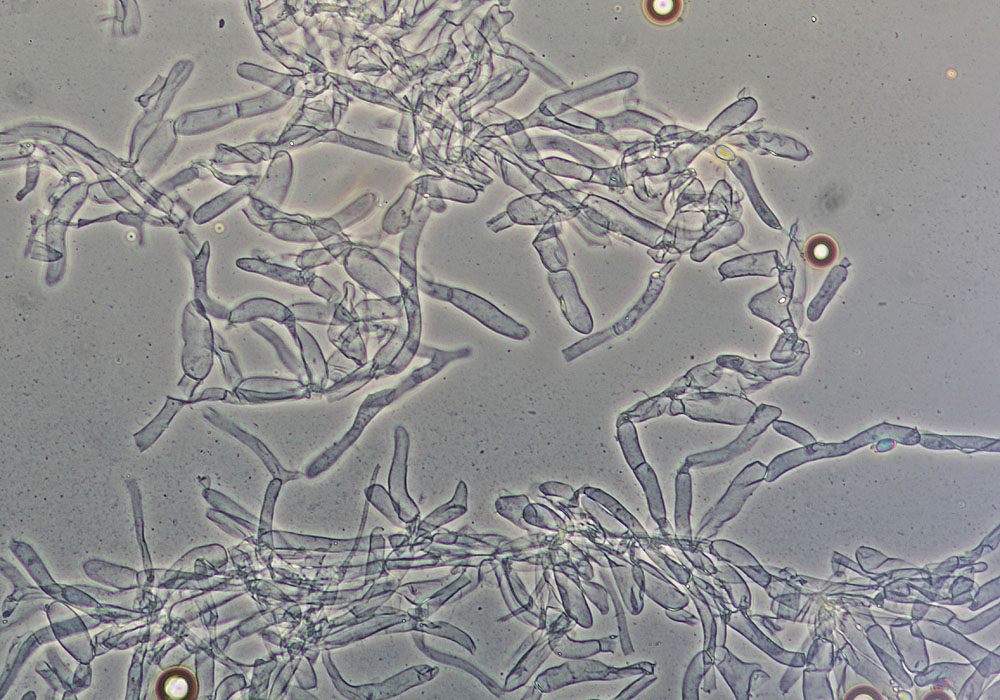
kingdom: Fungi
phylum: Basidiomycota
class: Agaricomycetes
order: Agaricales
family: Tricholomataceae
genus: Clitocybe
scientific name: Clitocybe obsoleta
